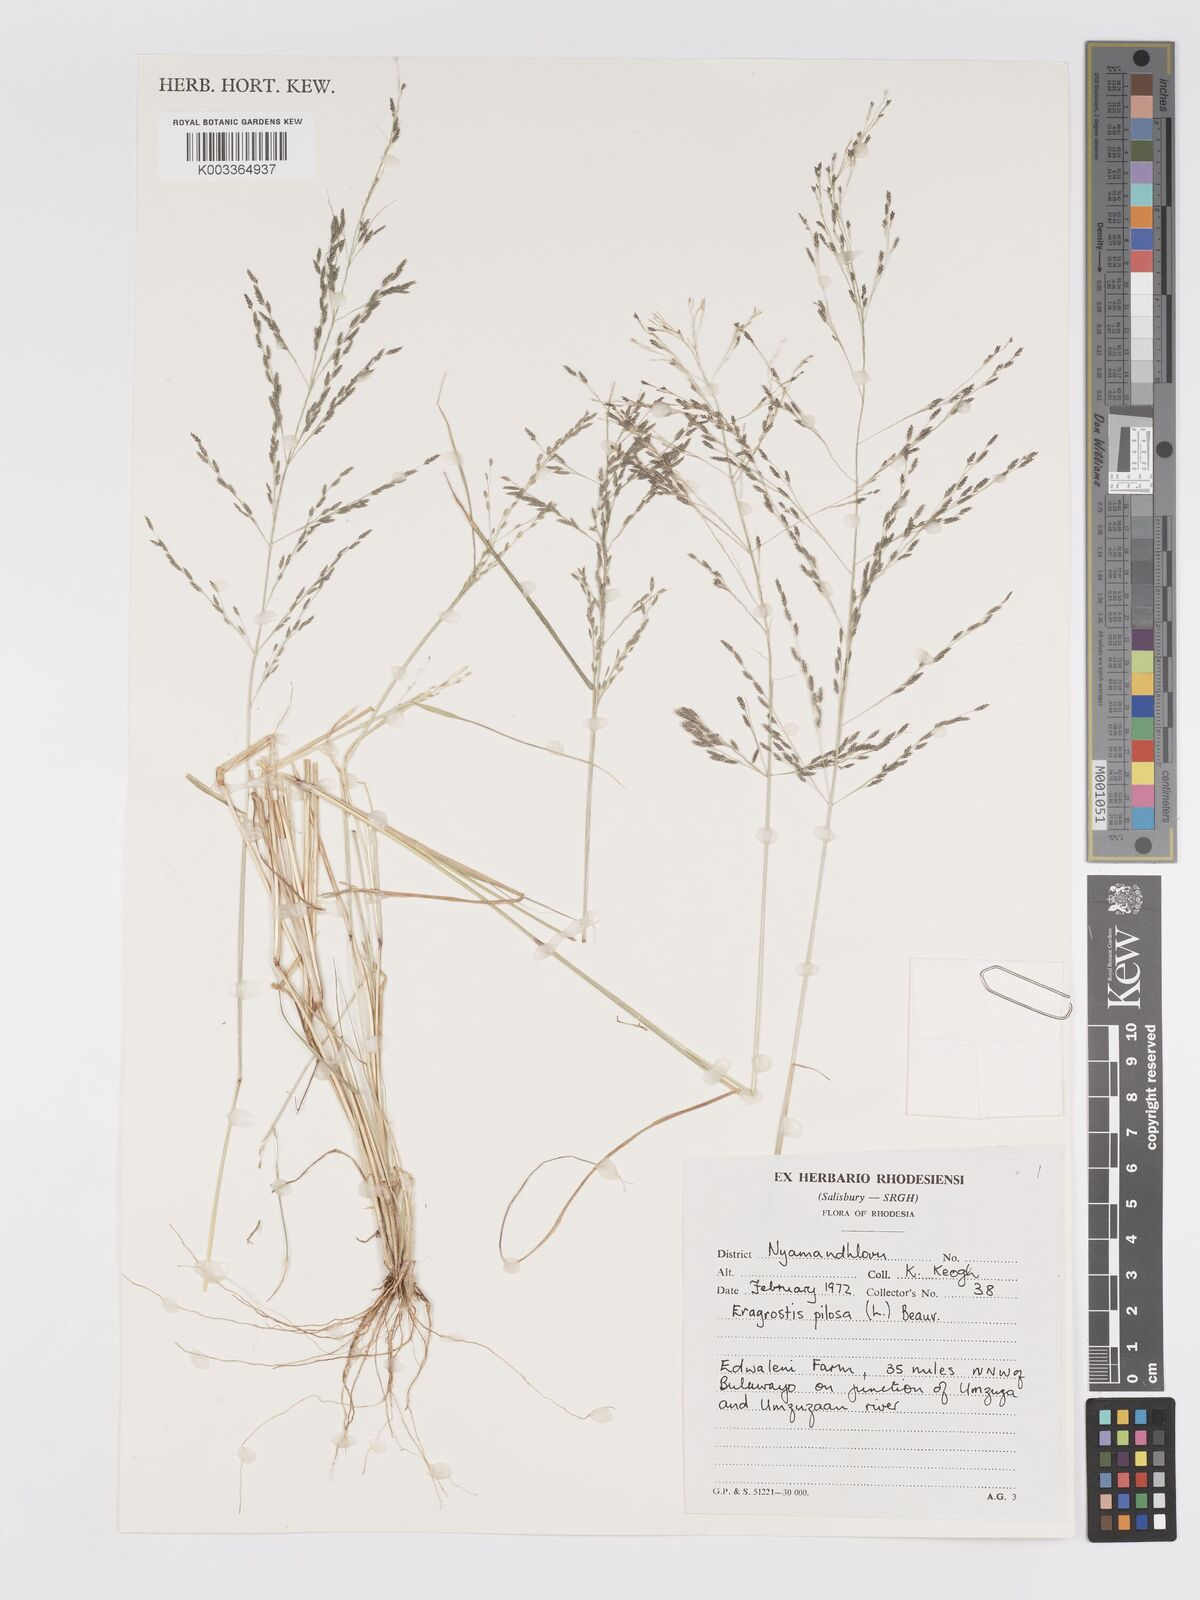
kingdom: Plantae
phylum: Tracheophyta
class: Liliopsida
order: Poales
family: Poaceae
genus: Eragrostis
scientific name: Eragrostis pilosa
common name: Indian lovegrass
